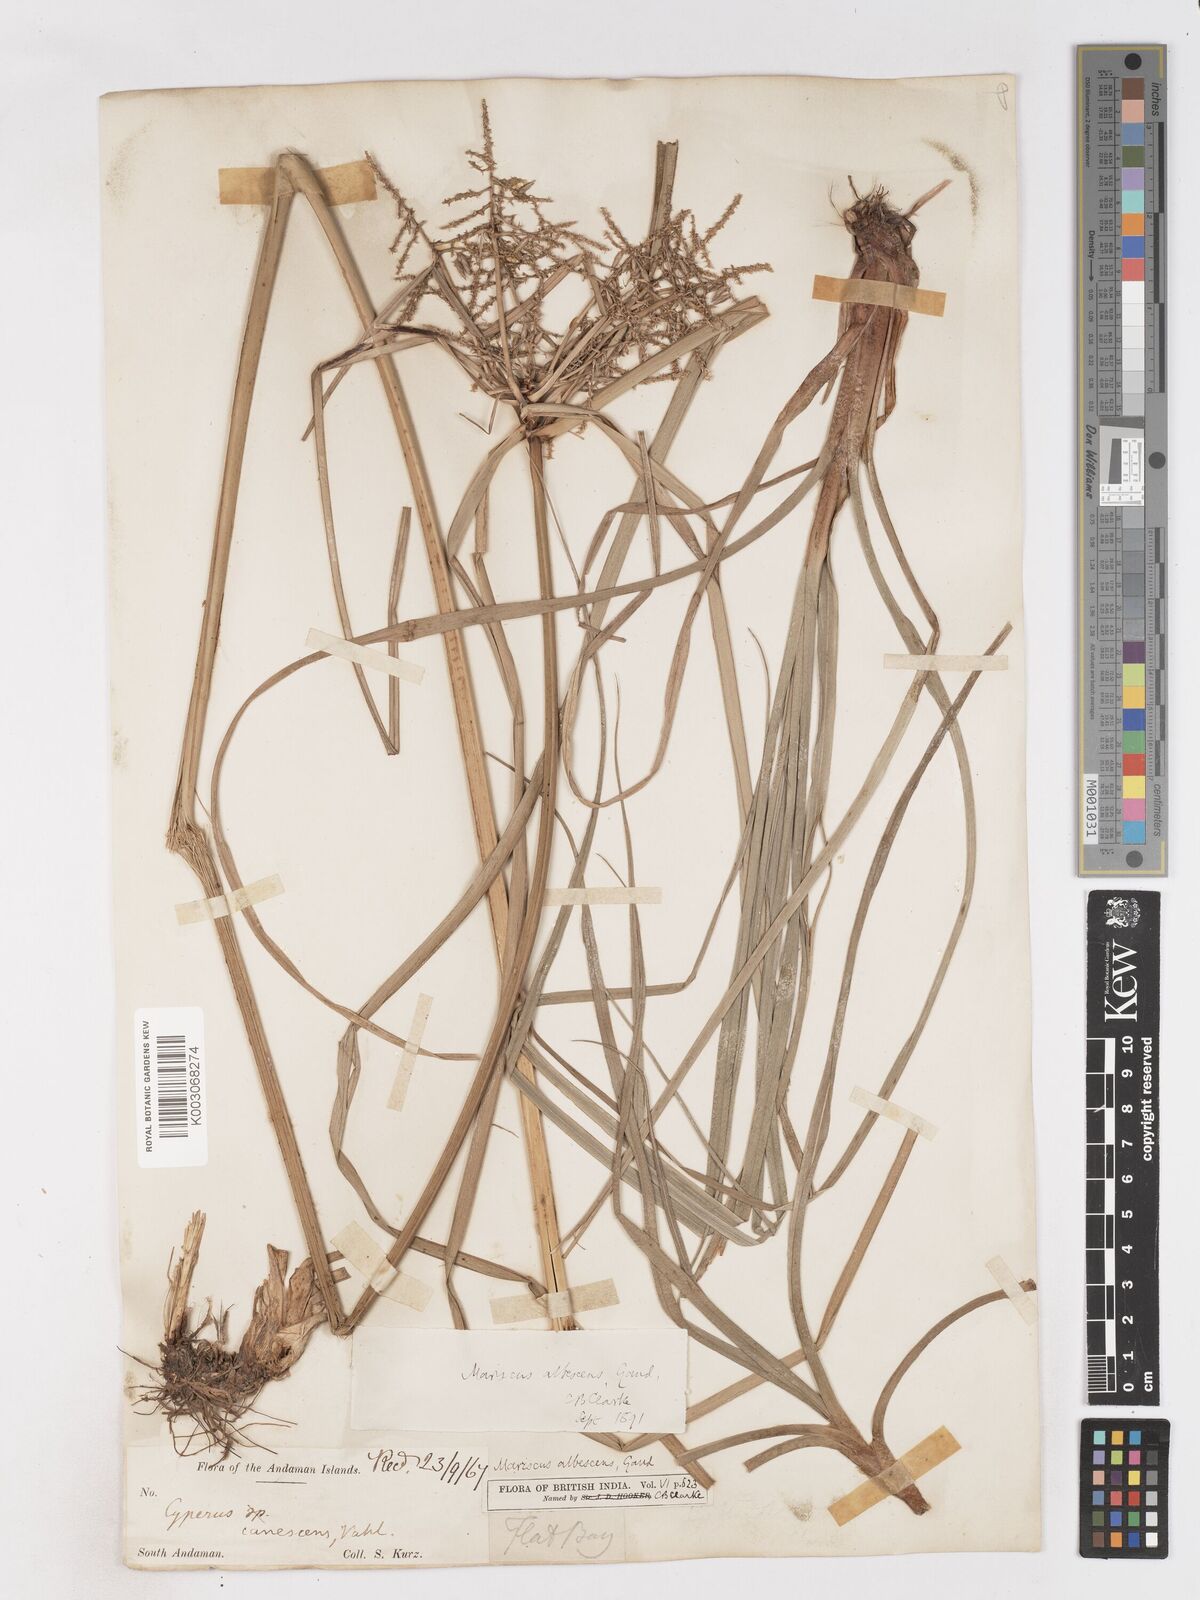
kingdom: Plantae
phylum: Tracheophyta
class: Liliopsida
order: Poales
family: Cyperaceae
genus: Cyperus
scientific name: Cyperus javanicus
